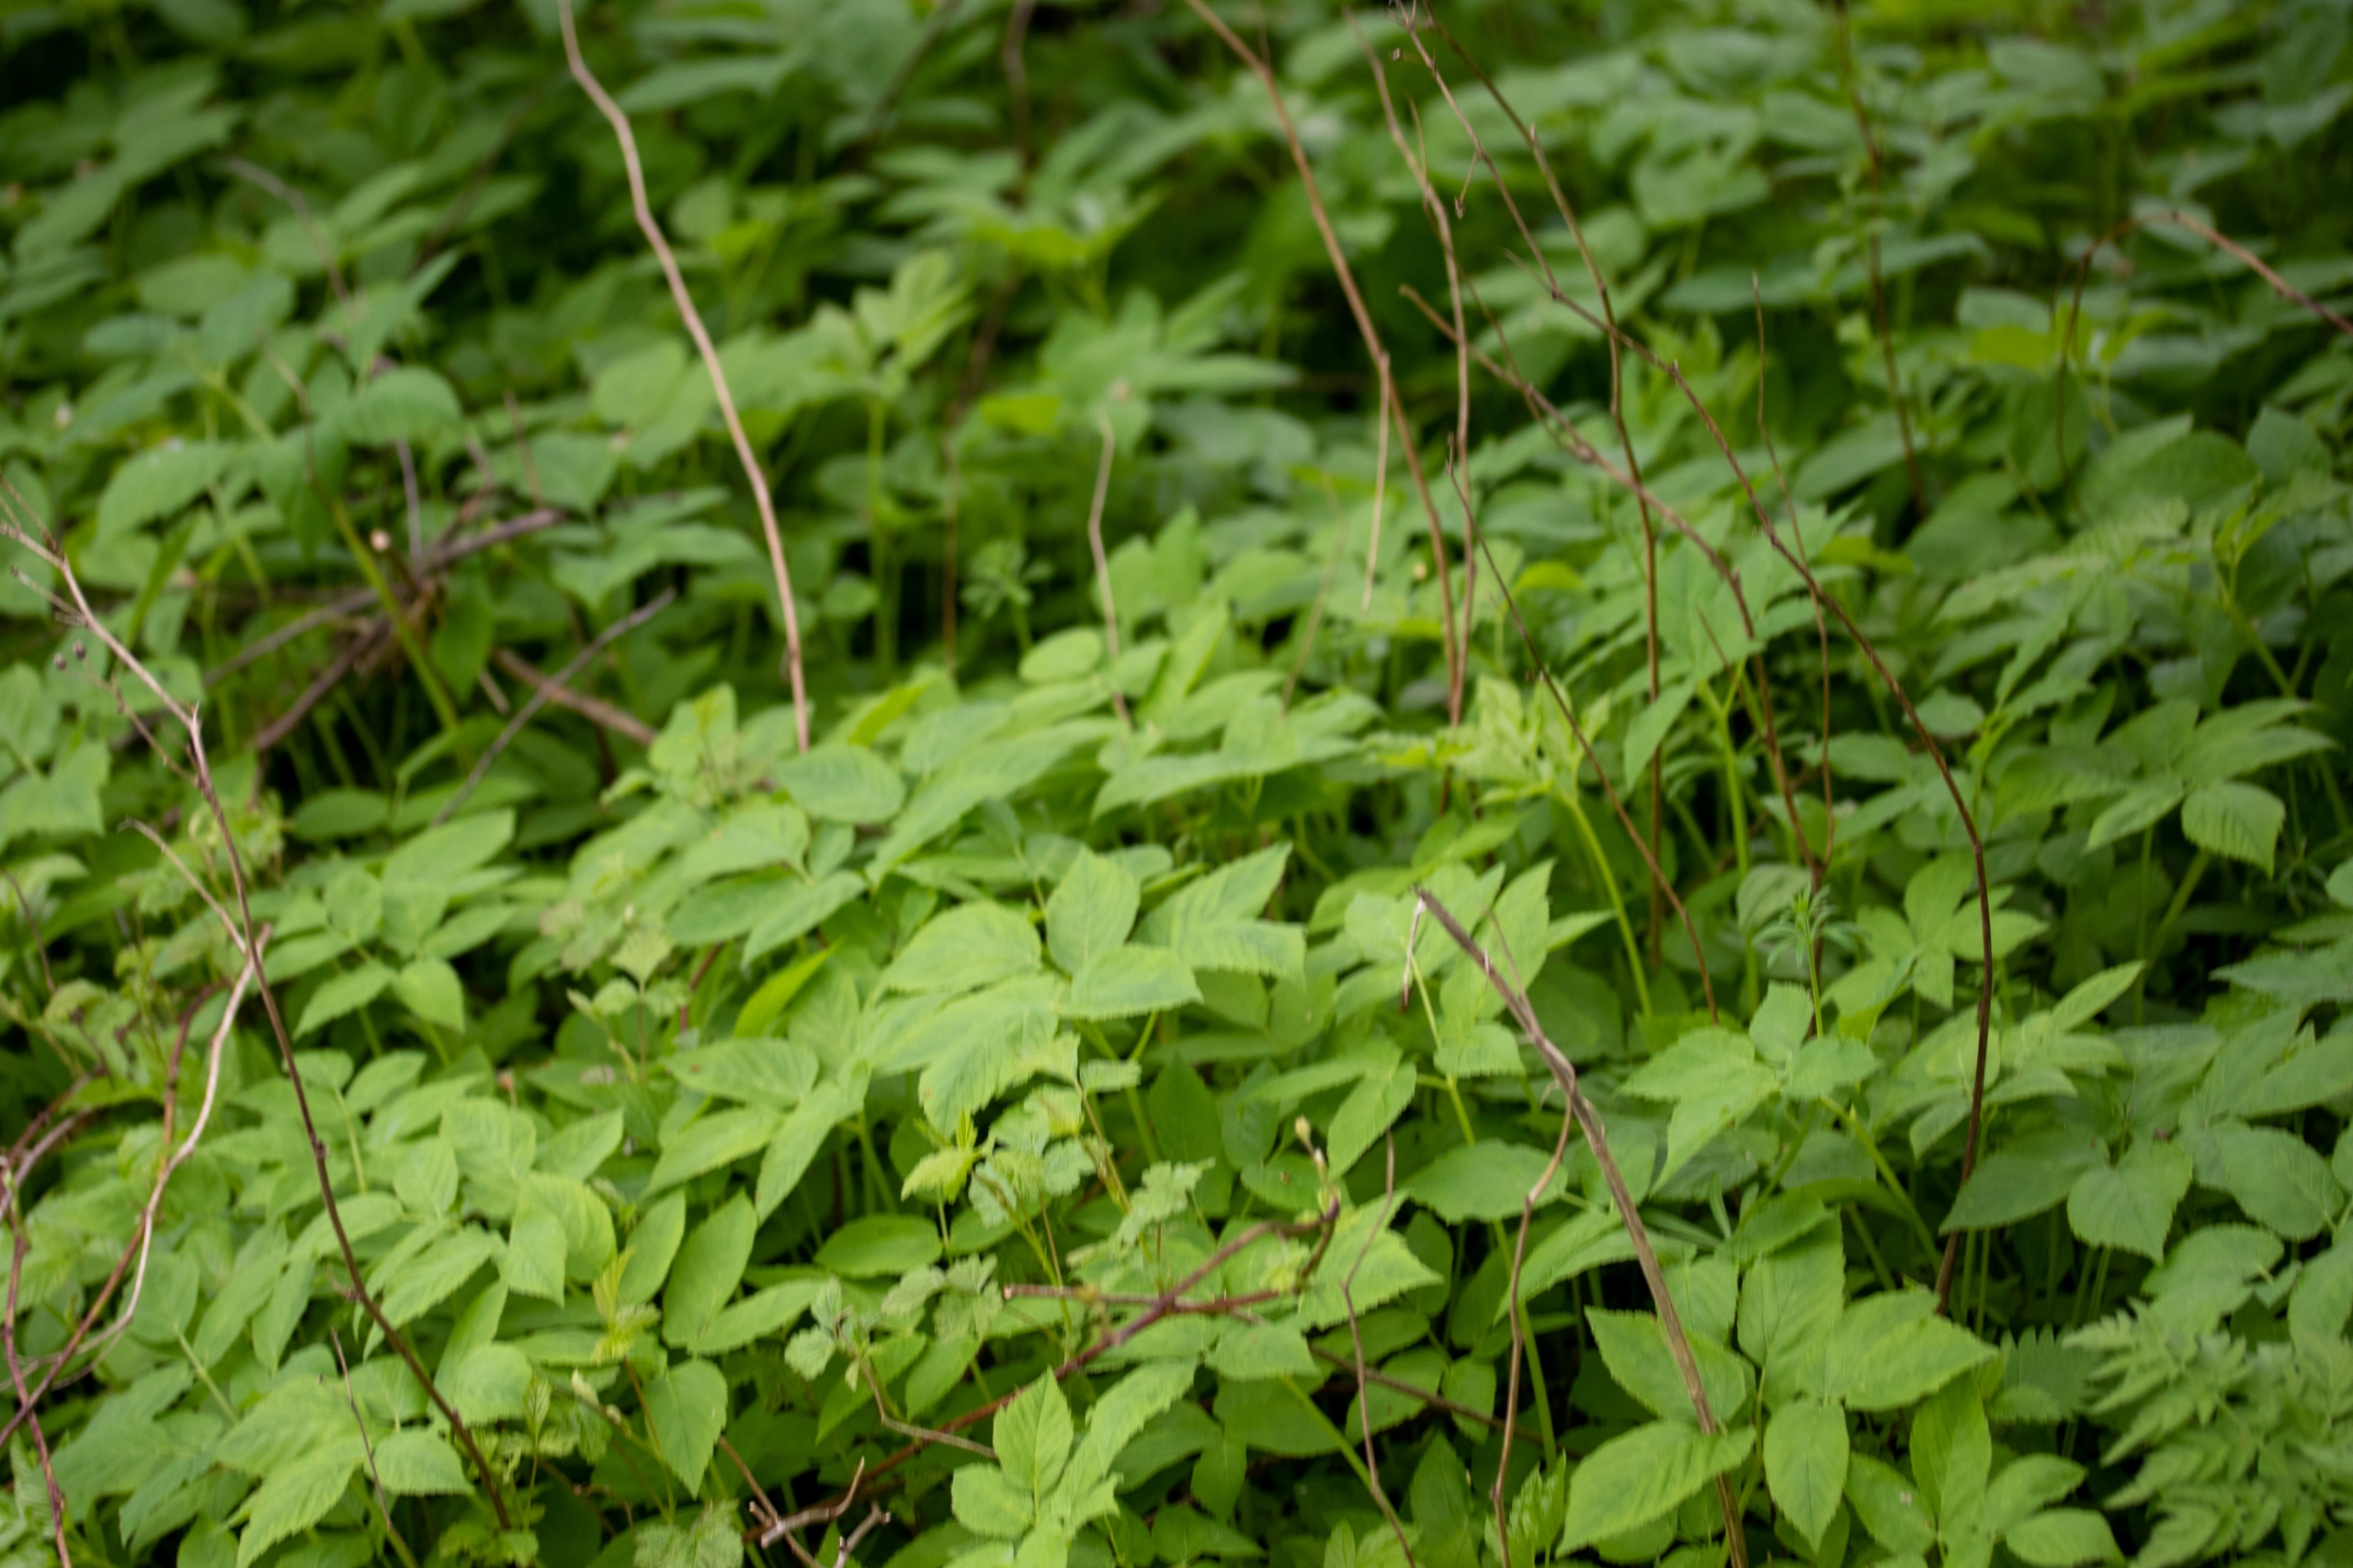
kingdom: Plantae
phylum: Tracheophyta
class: Magnoliopsida
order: Apiales
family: Apiaceae
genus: Aegopodium
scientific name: Aegopodium podagraria
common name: Skvalderkål
